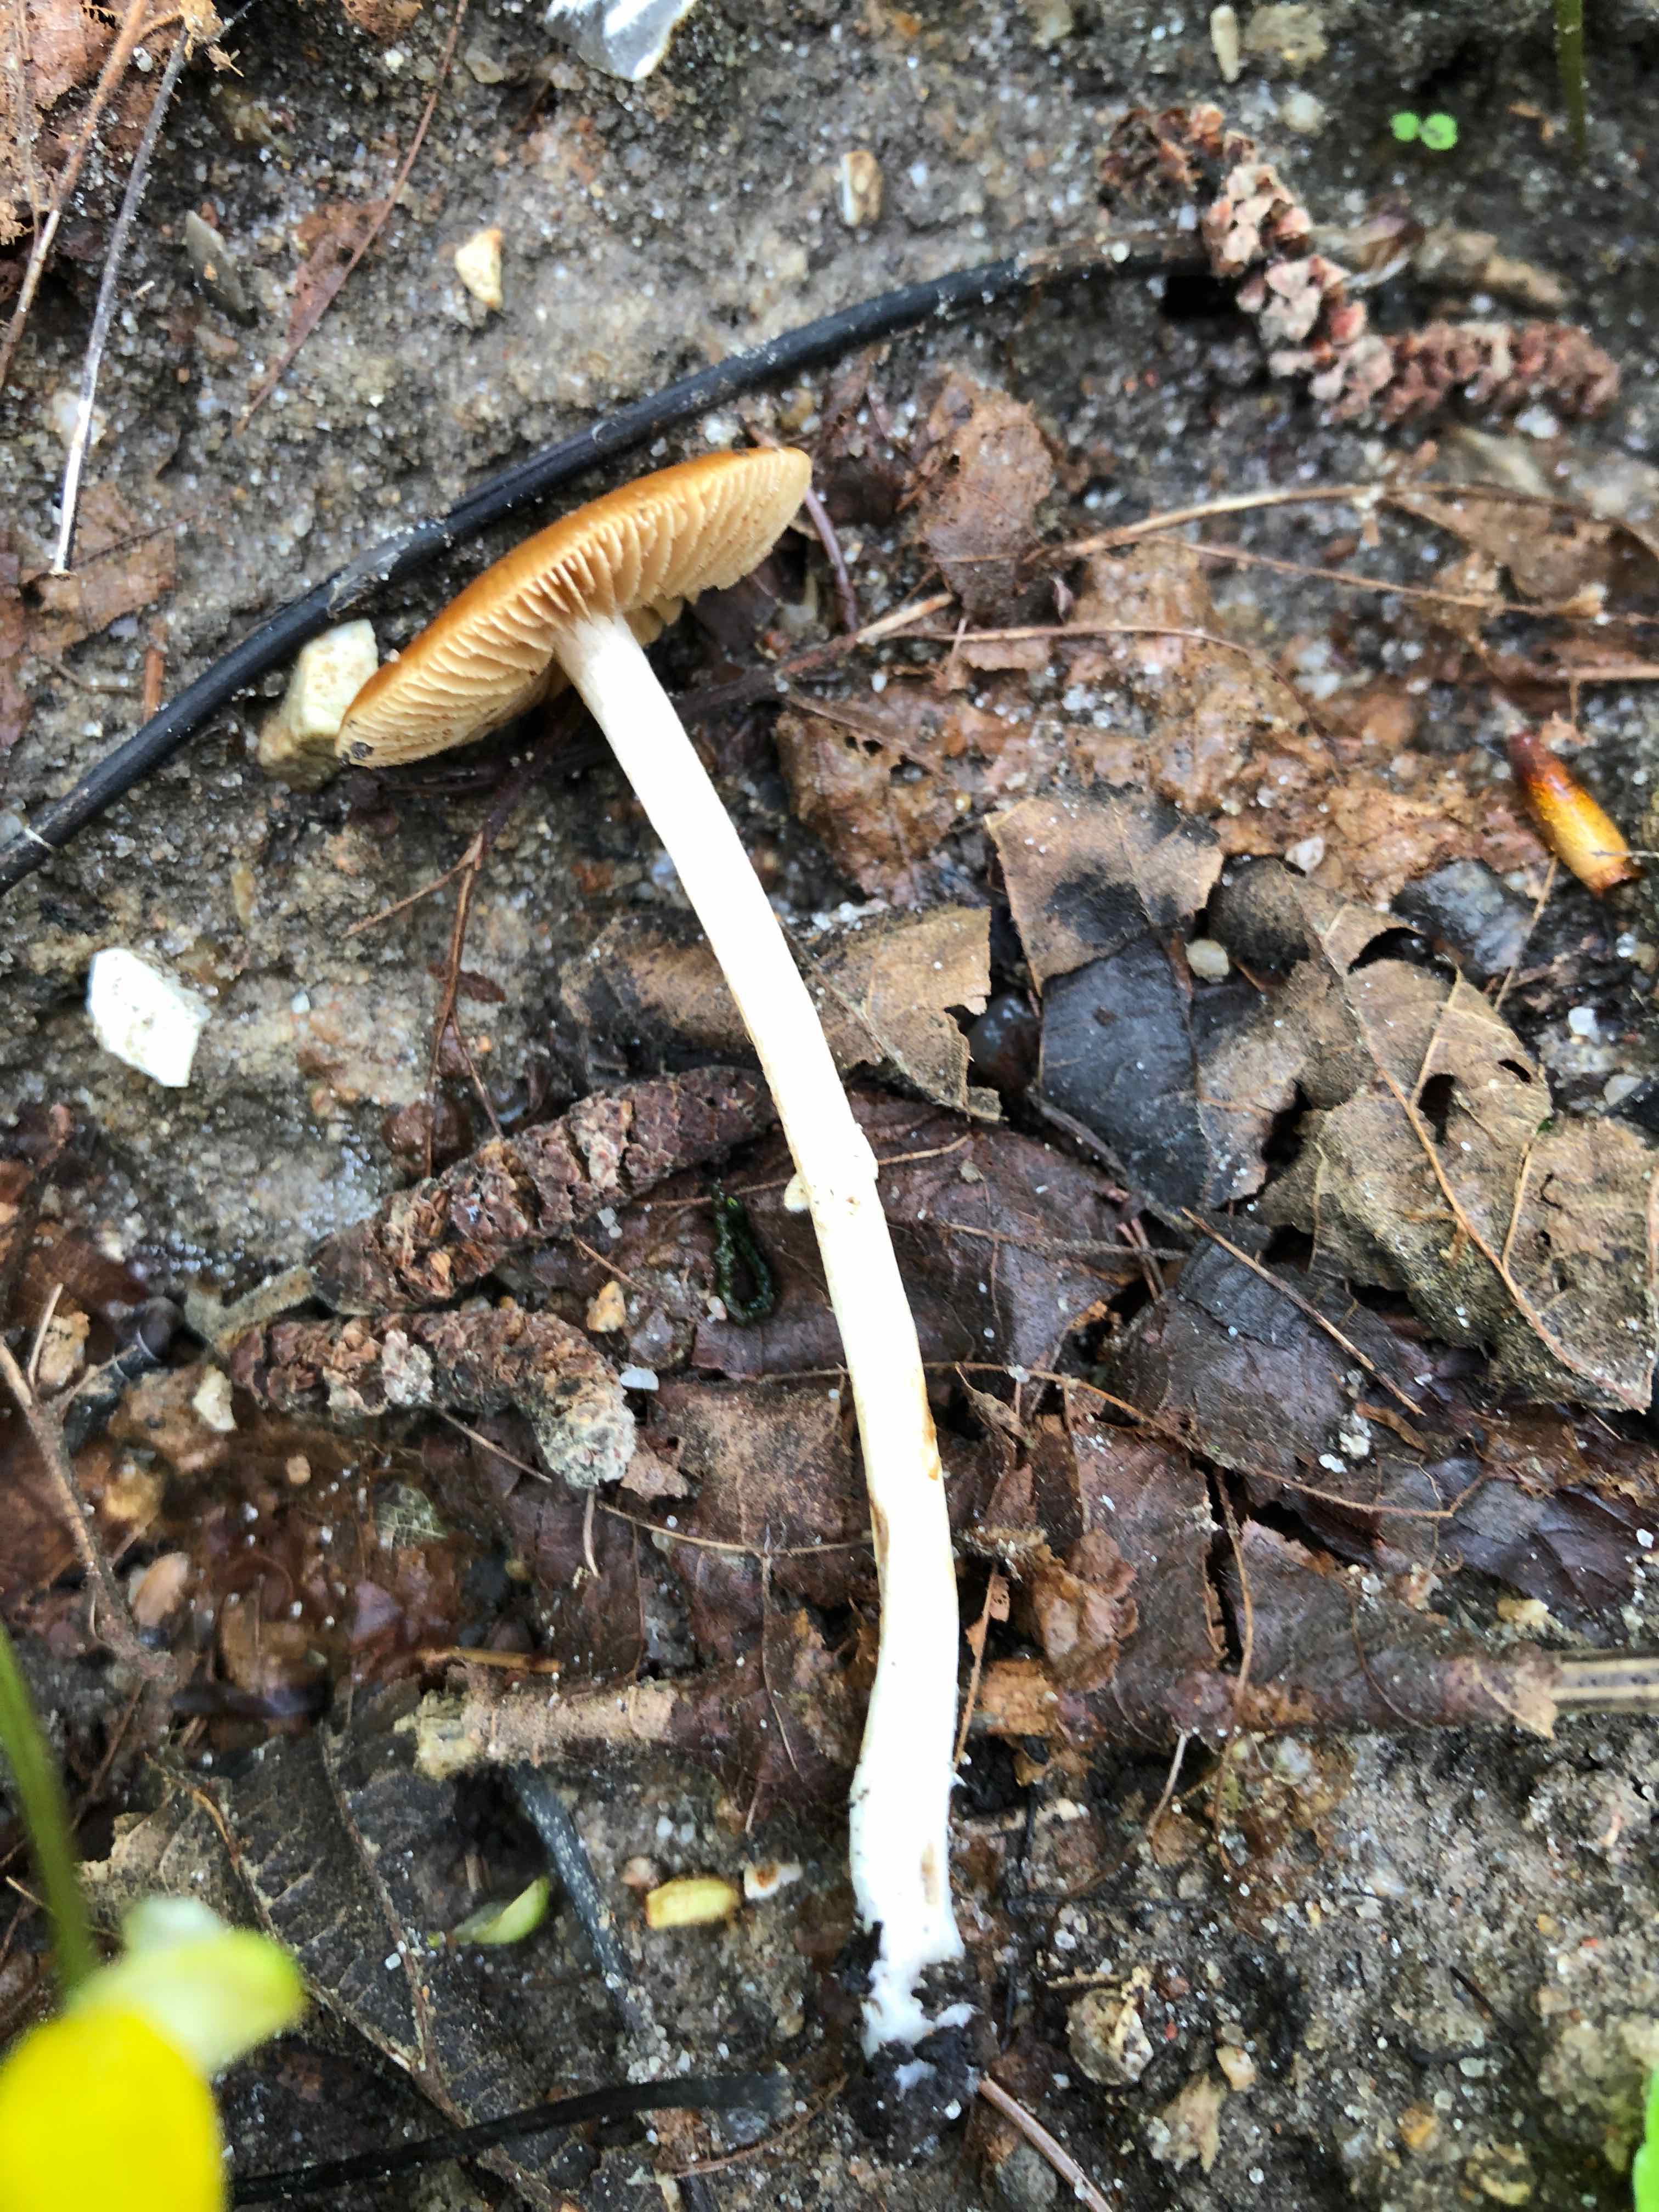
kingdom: Fungi
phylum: Basidiomycota
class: Agaricomycetes
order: Agaricales
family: Bolbitiaceae
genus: Pholiotina
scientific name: Pholiotina
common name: dansehat
